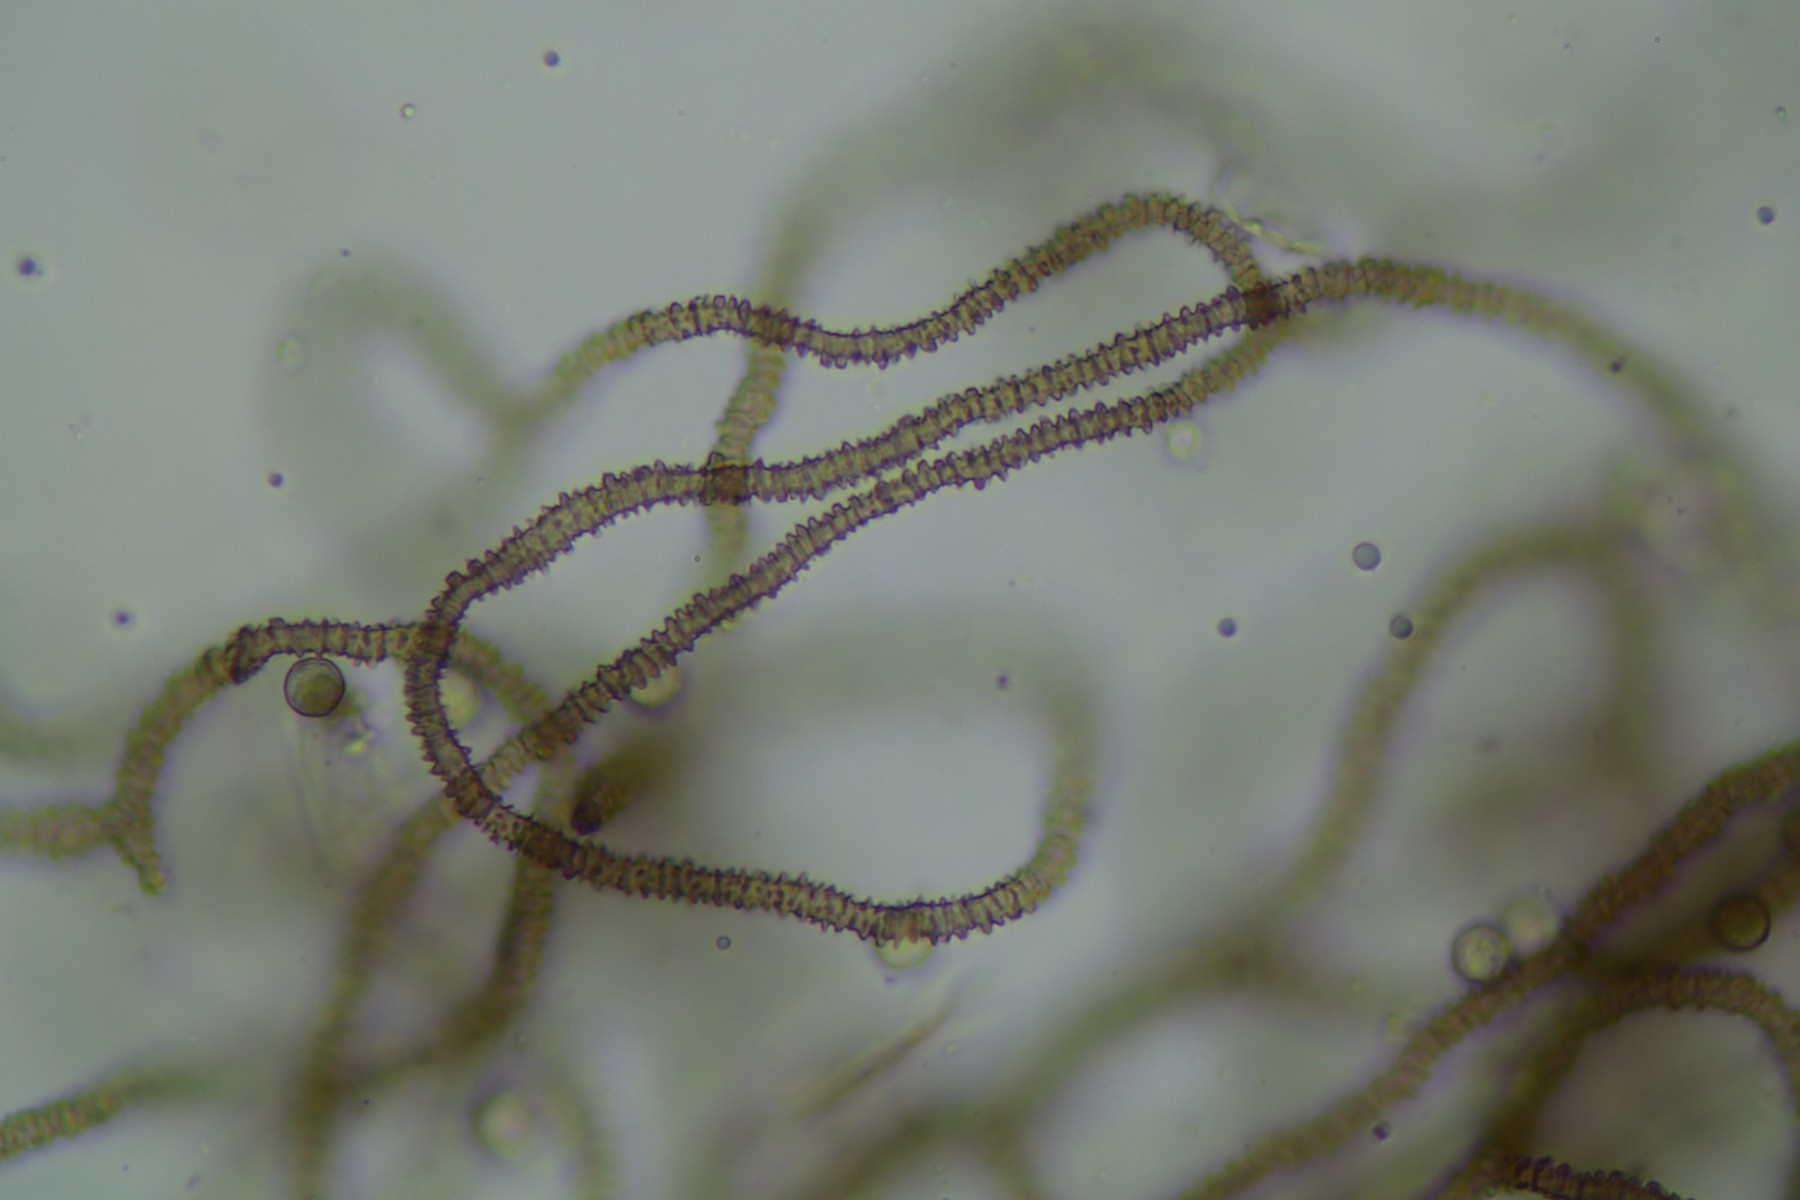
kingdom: Protozoa
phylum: Mycetozoa
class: Myxomycetes
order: Trichiales
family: Arcyriaceae
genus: Arcyria
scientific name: Arcyria affinis
